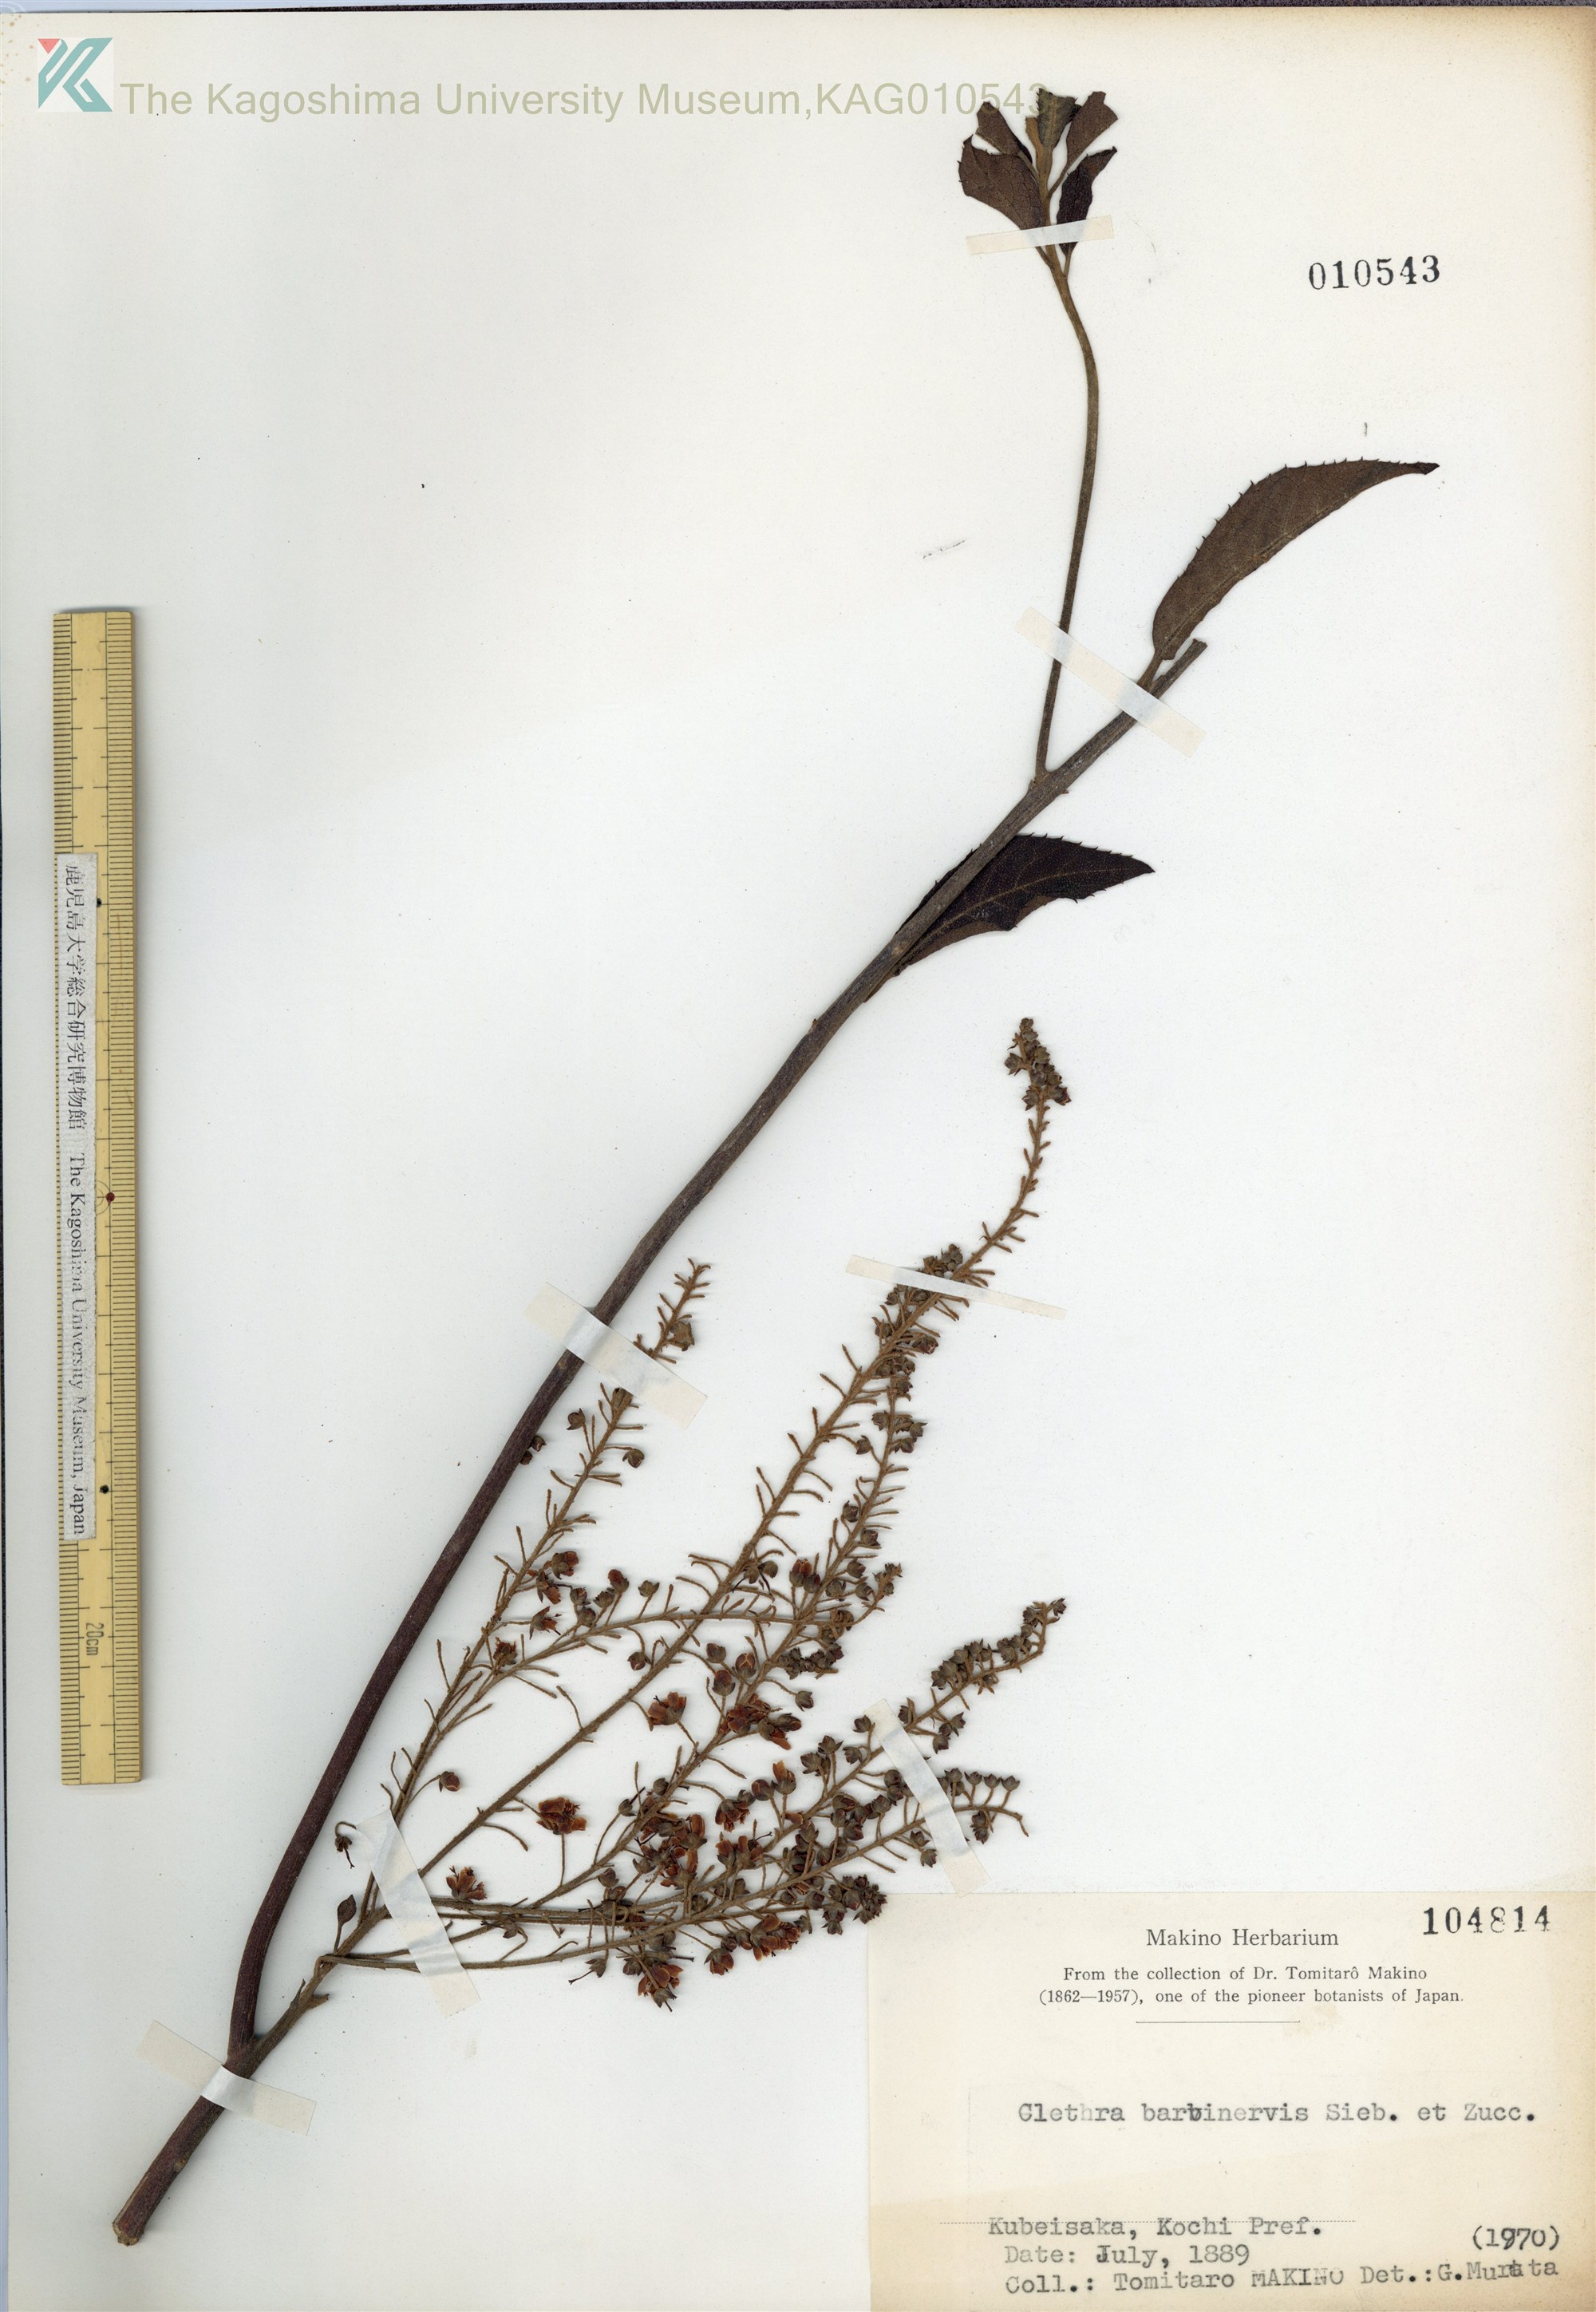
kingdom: Plantae
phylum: Tracheophyta
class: Magnoliopsida
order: Ericales
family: Clethraceae
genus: Clethra
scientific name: Clethra barbinervis
